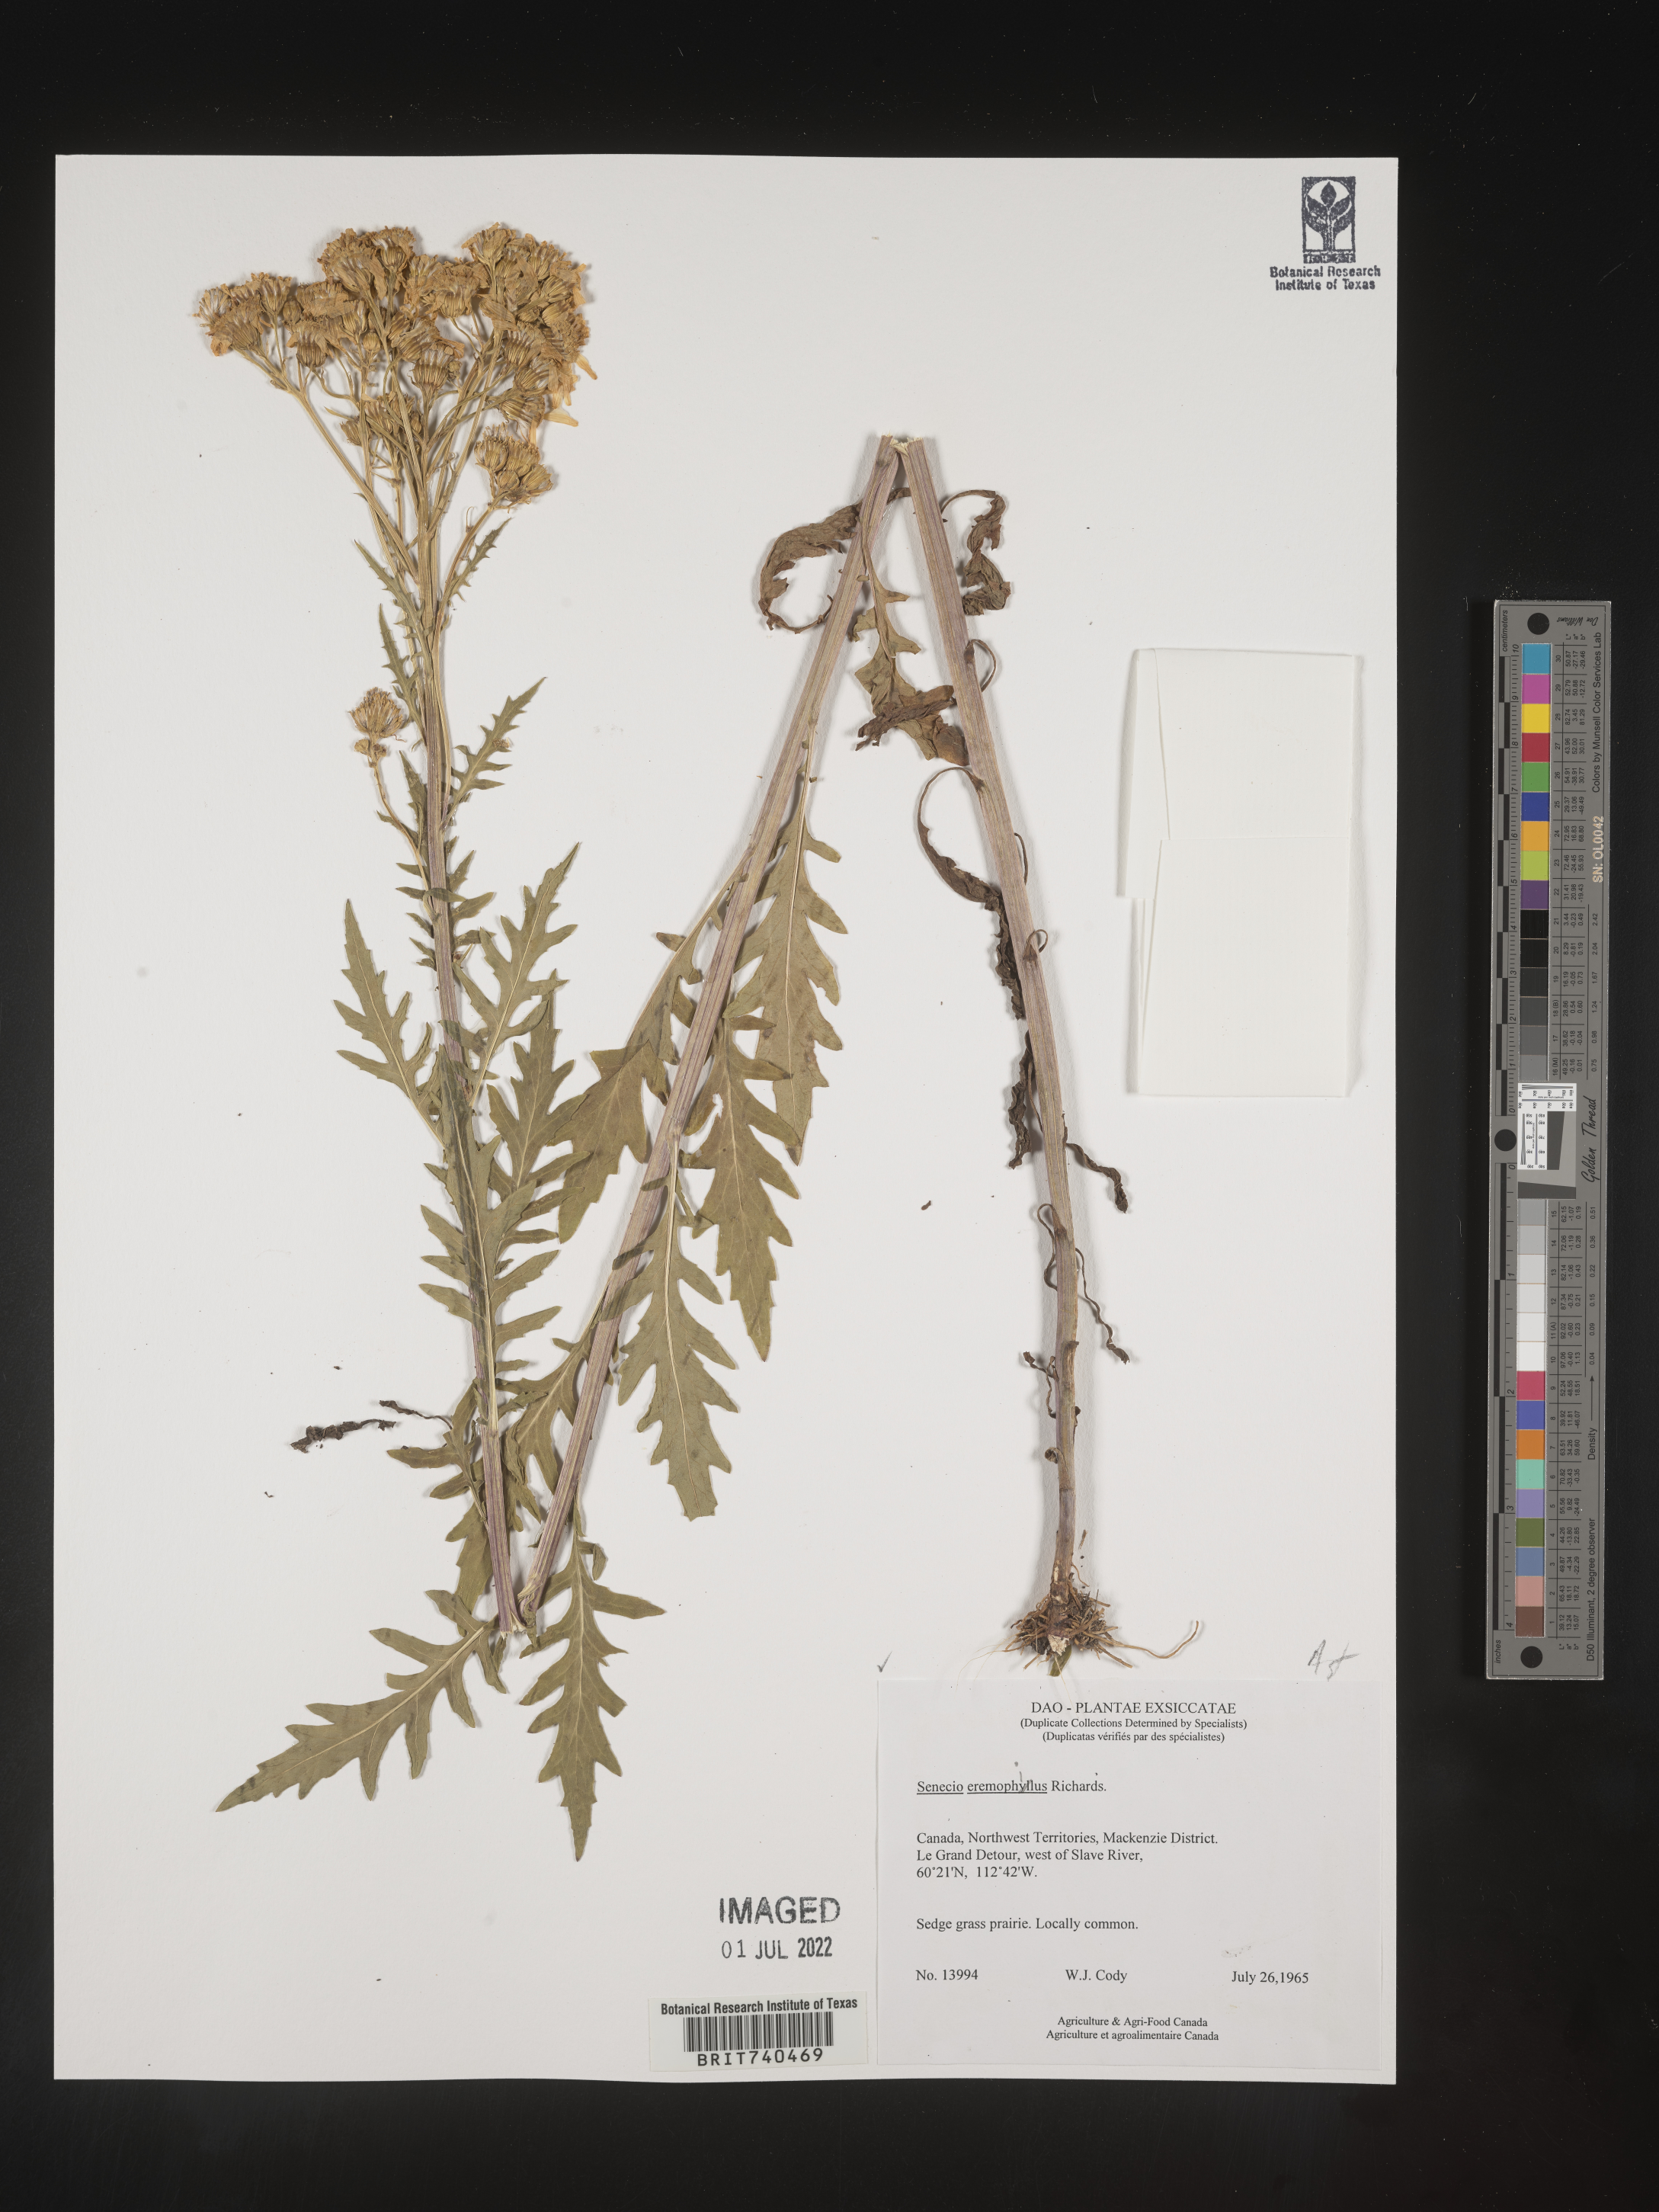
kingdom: Plantae
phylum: Tracheophyta
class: Magnoliopsida
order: Asterales
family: Asteraceae
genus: Senecio
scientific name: Senecio eremophilus
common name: Desert ragwort
